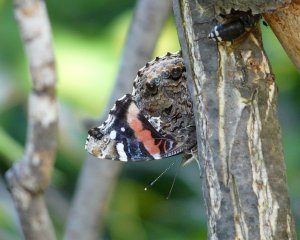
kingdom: Animalia
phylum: Arthropoda
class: Insecta
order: Lepidoptera
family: Nymphalidae
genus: Vanessa
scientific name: Vanessa atalanta
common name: Red Admiral
